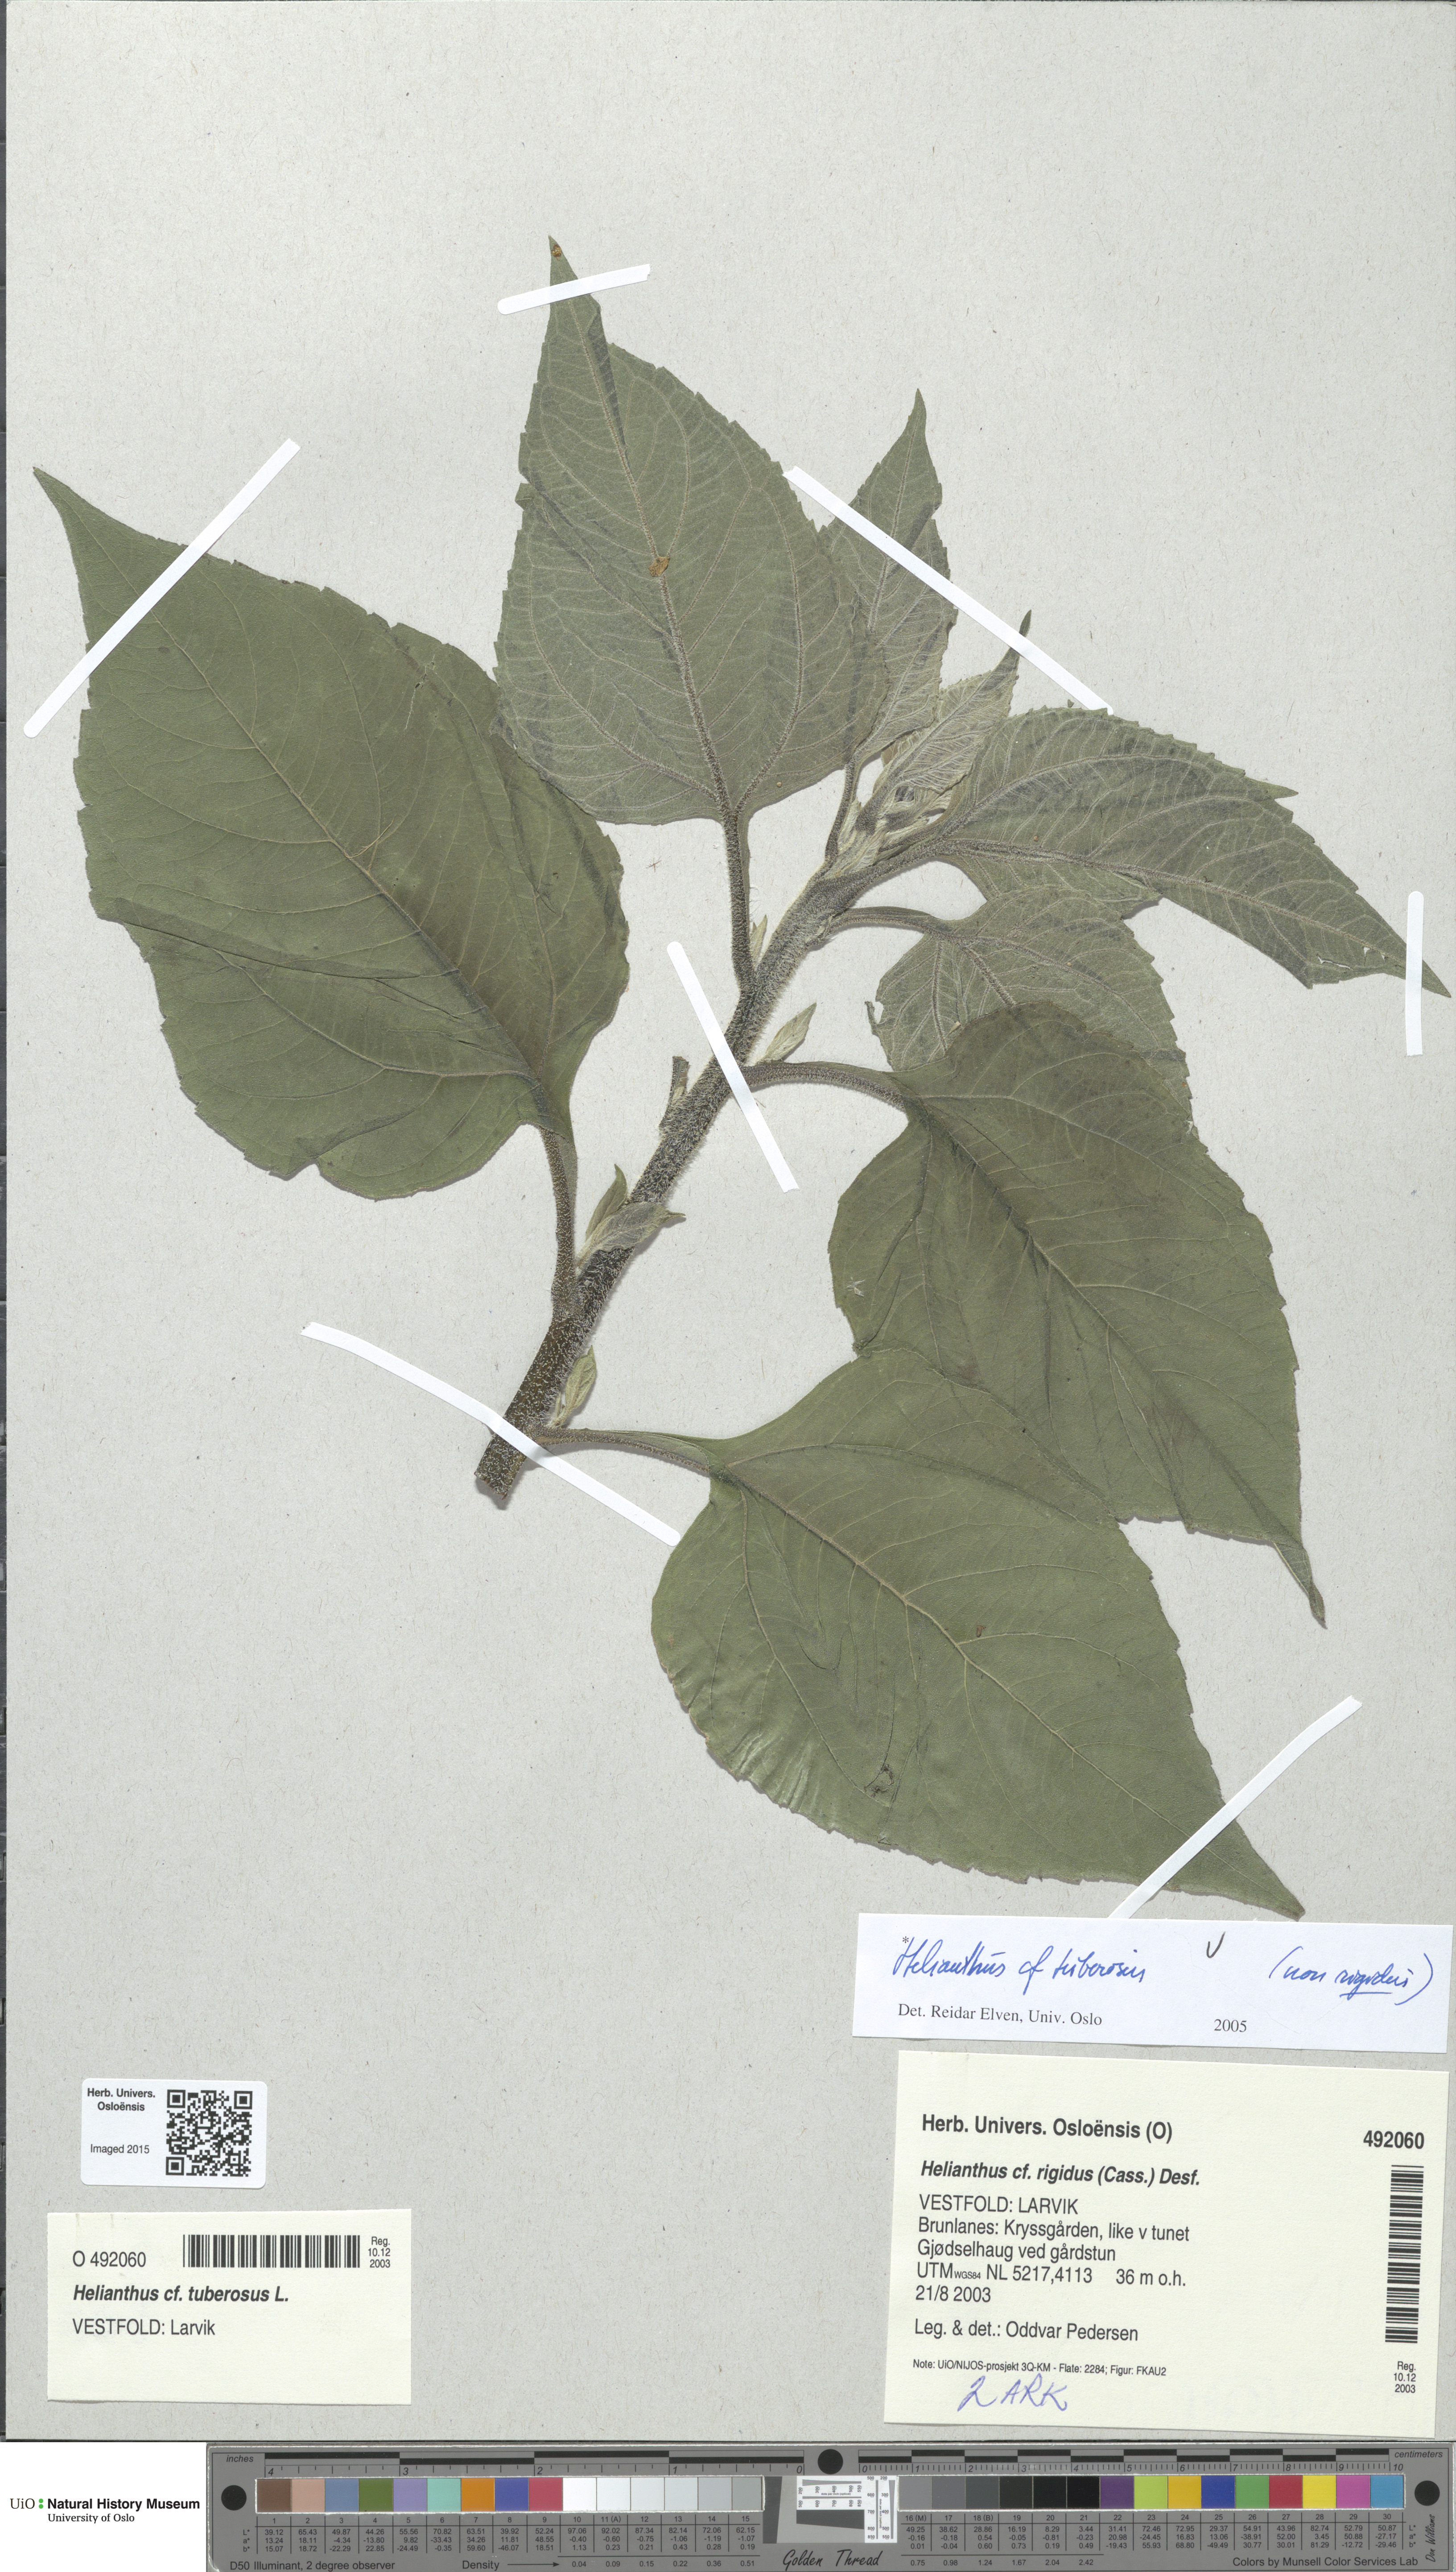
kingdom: Plantae
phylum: Tracheophyta
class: Magnoliopsida
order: Asterales
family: Asteraceae
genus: Helianthus
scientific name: Helianthus tuberosus
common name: Jerusalem artichoke
